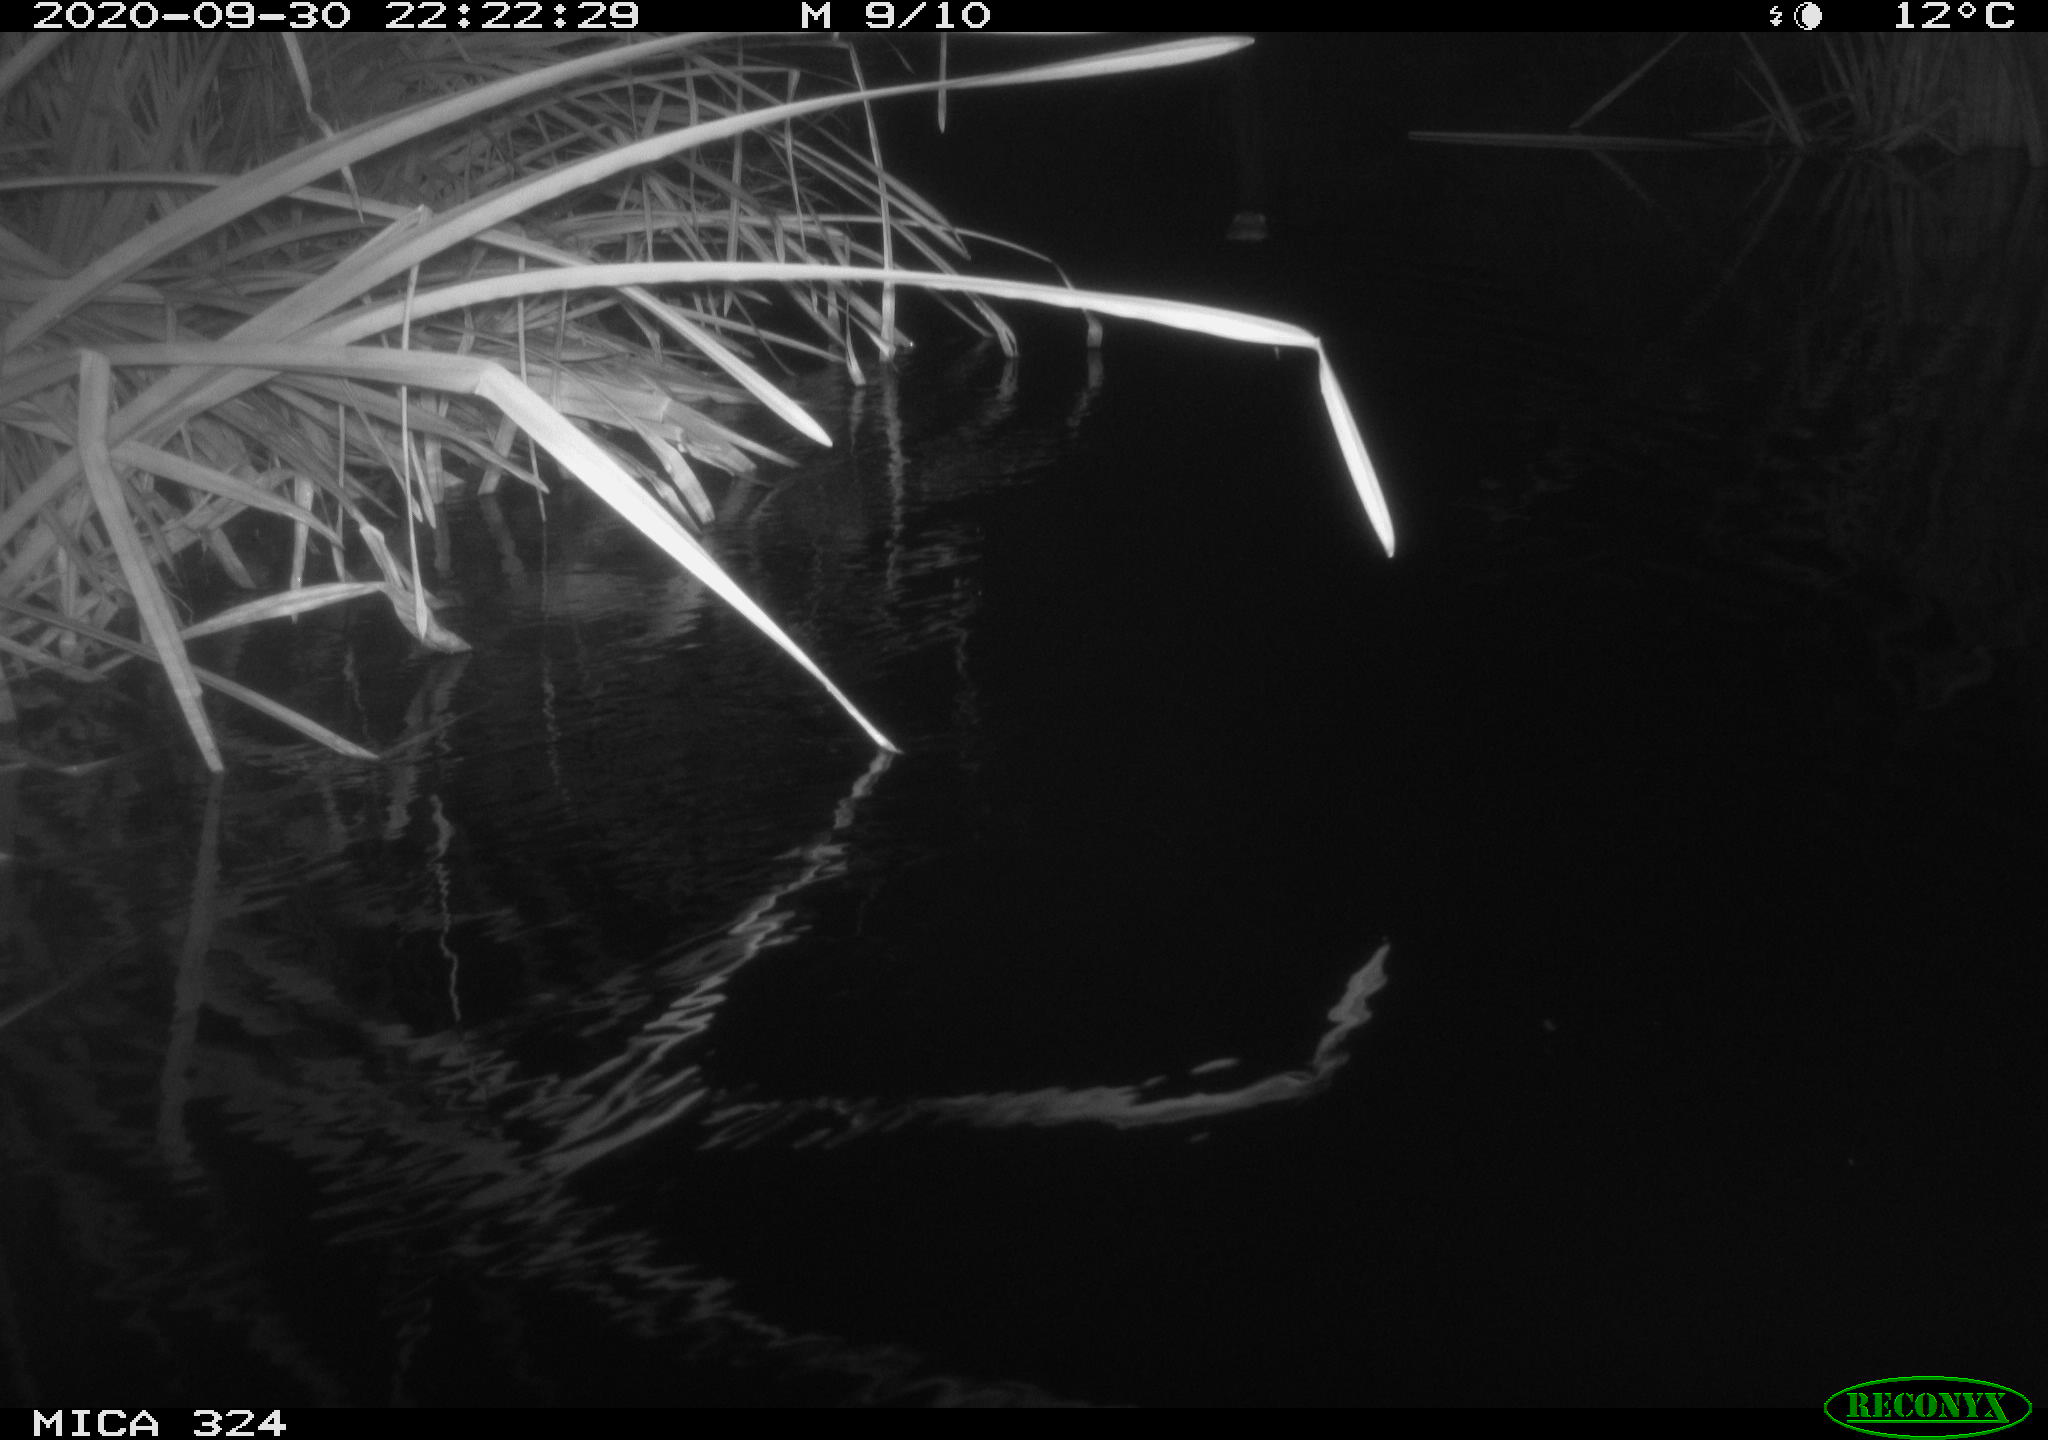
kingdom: Animalia
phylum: Chordata
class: Mammalia
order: Rodentia
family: Cricetidae
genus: Ondatra
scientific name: Ondatra zibethicus
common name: Muskrat
